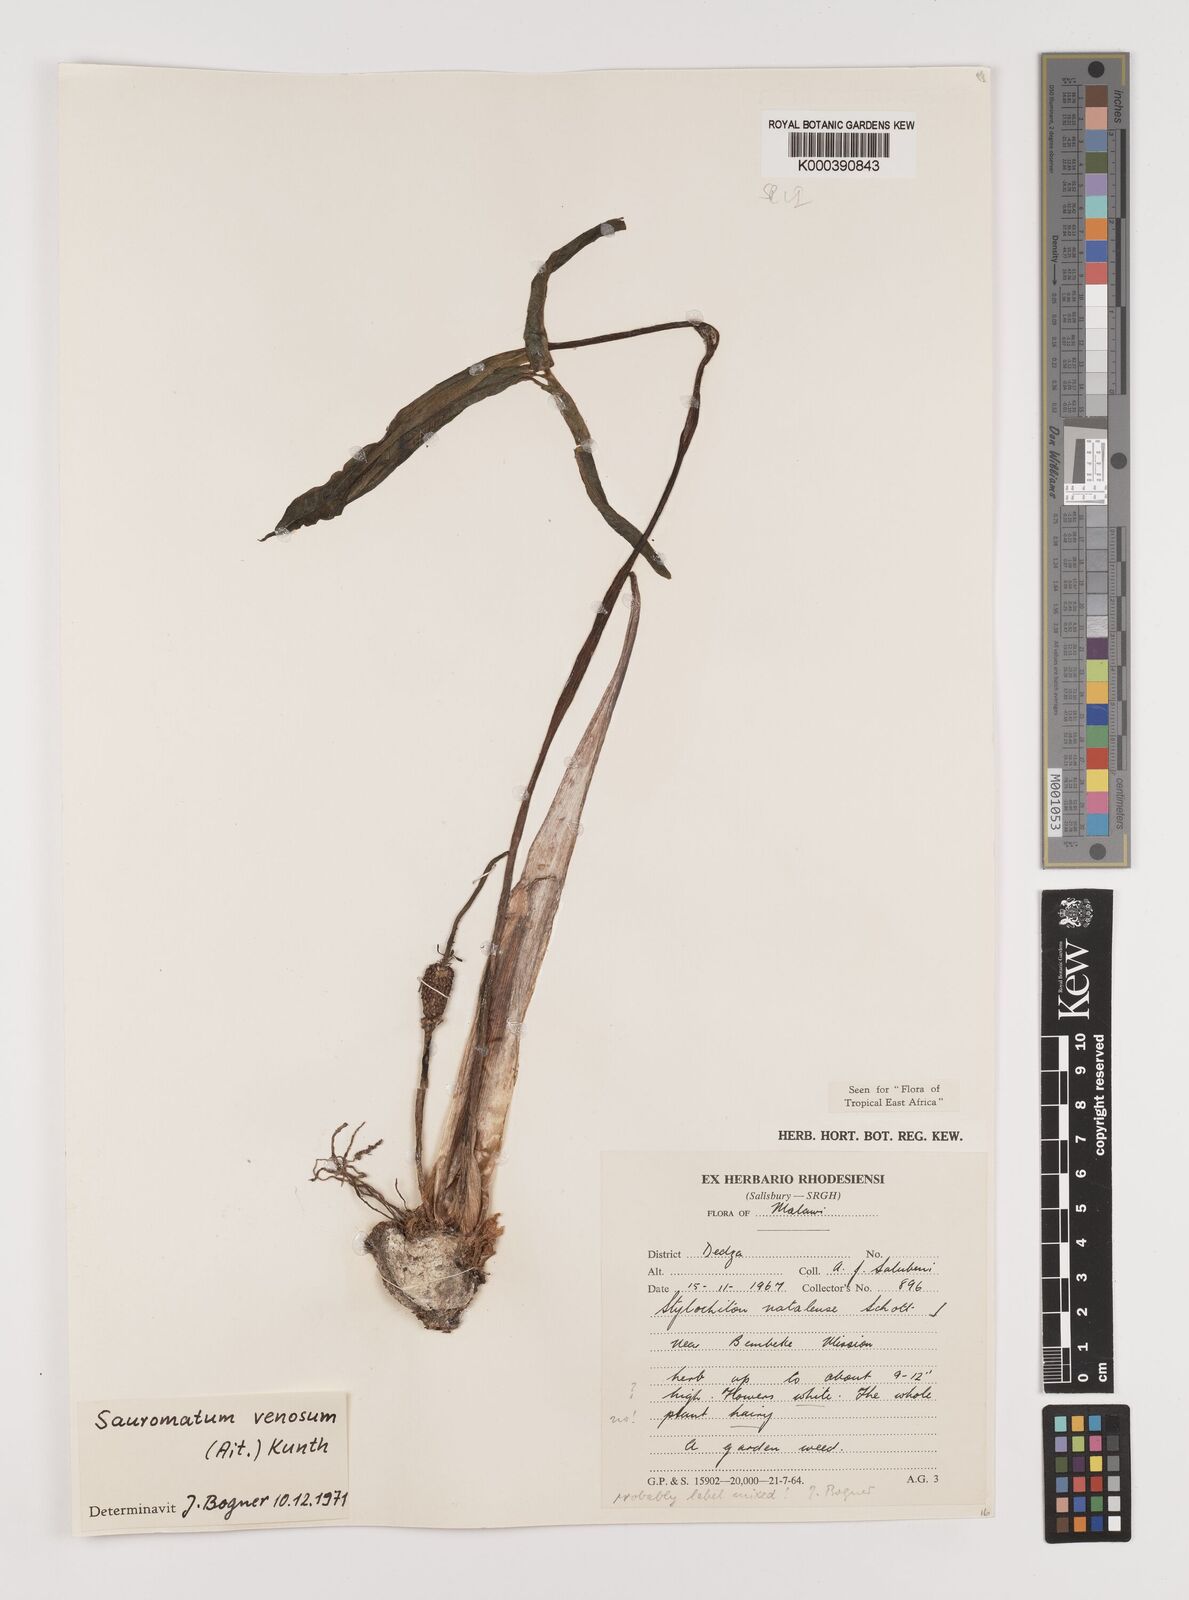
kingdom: Plantae
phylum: Tracheophyta
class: Liliopsida
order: Alismatales
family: Araceae
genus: Sauromatum
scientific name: Sauromatum venosum
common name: Voodoo lily
